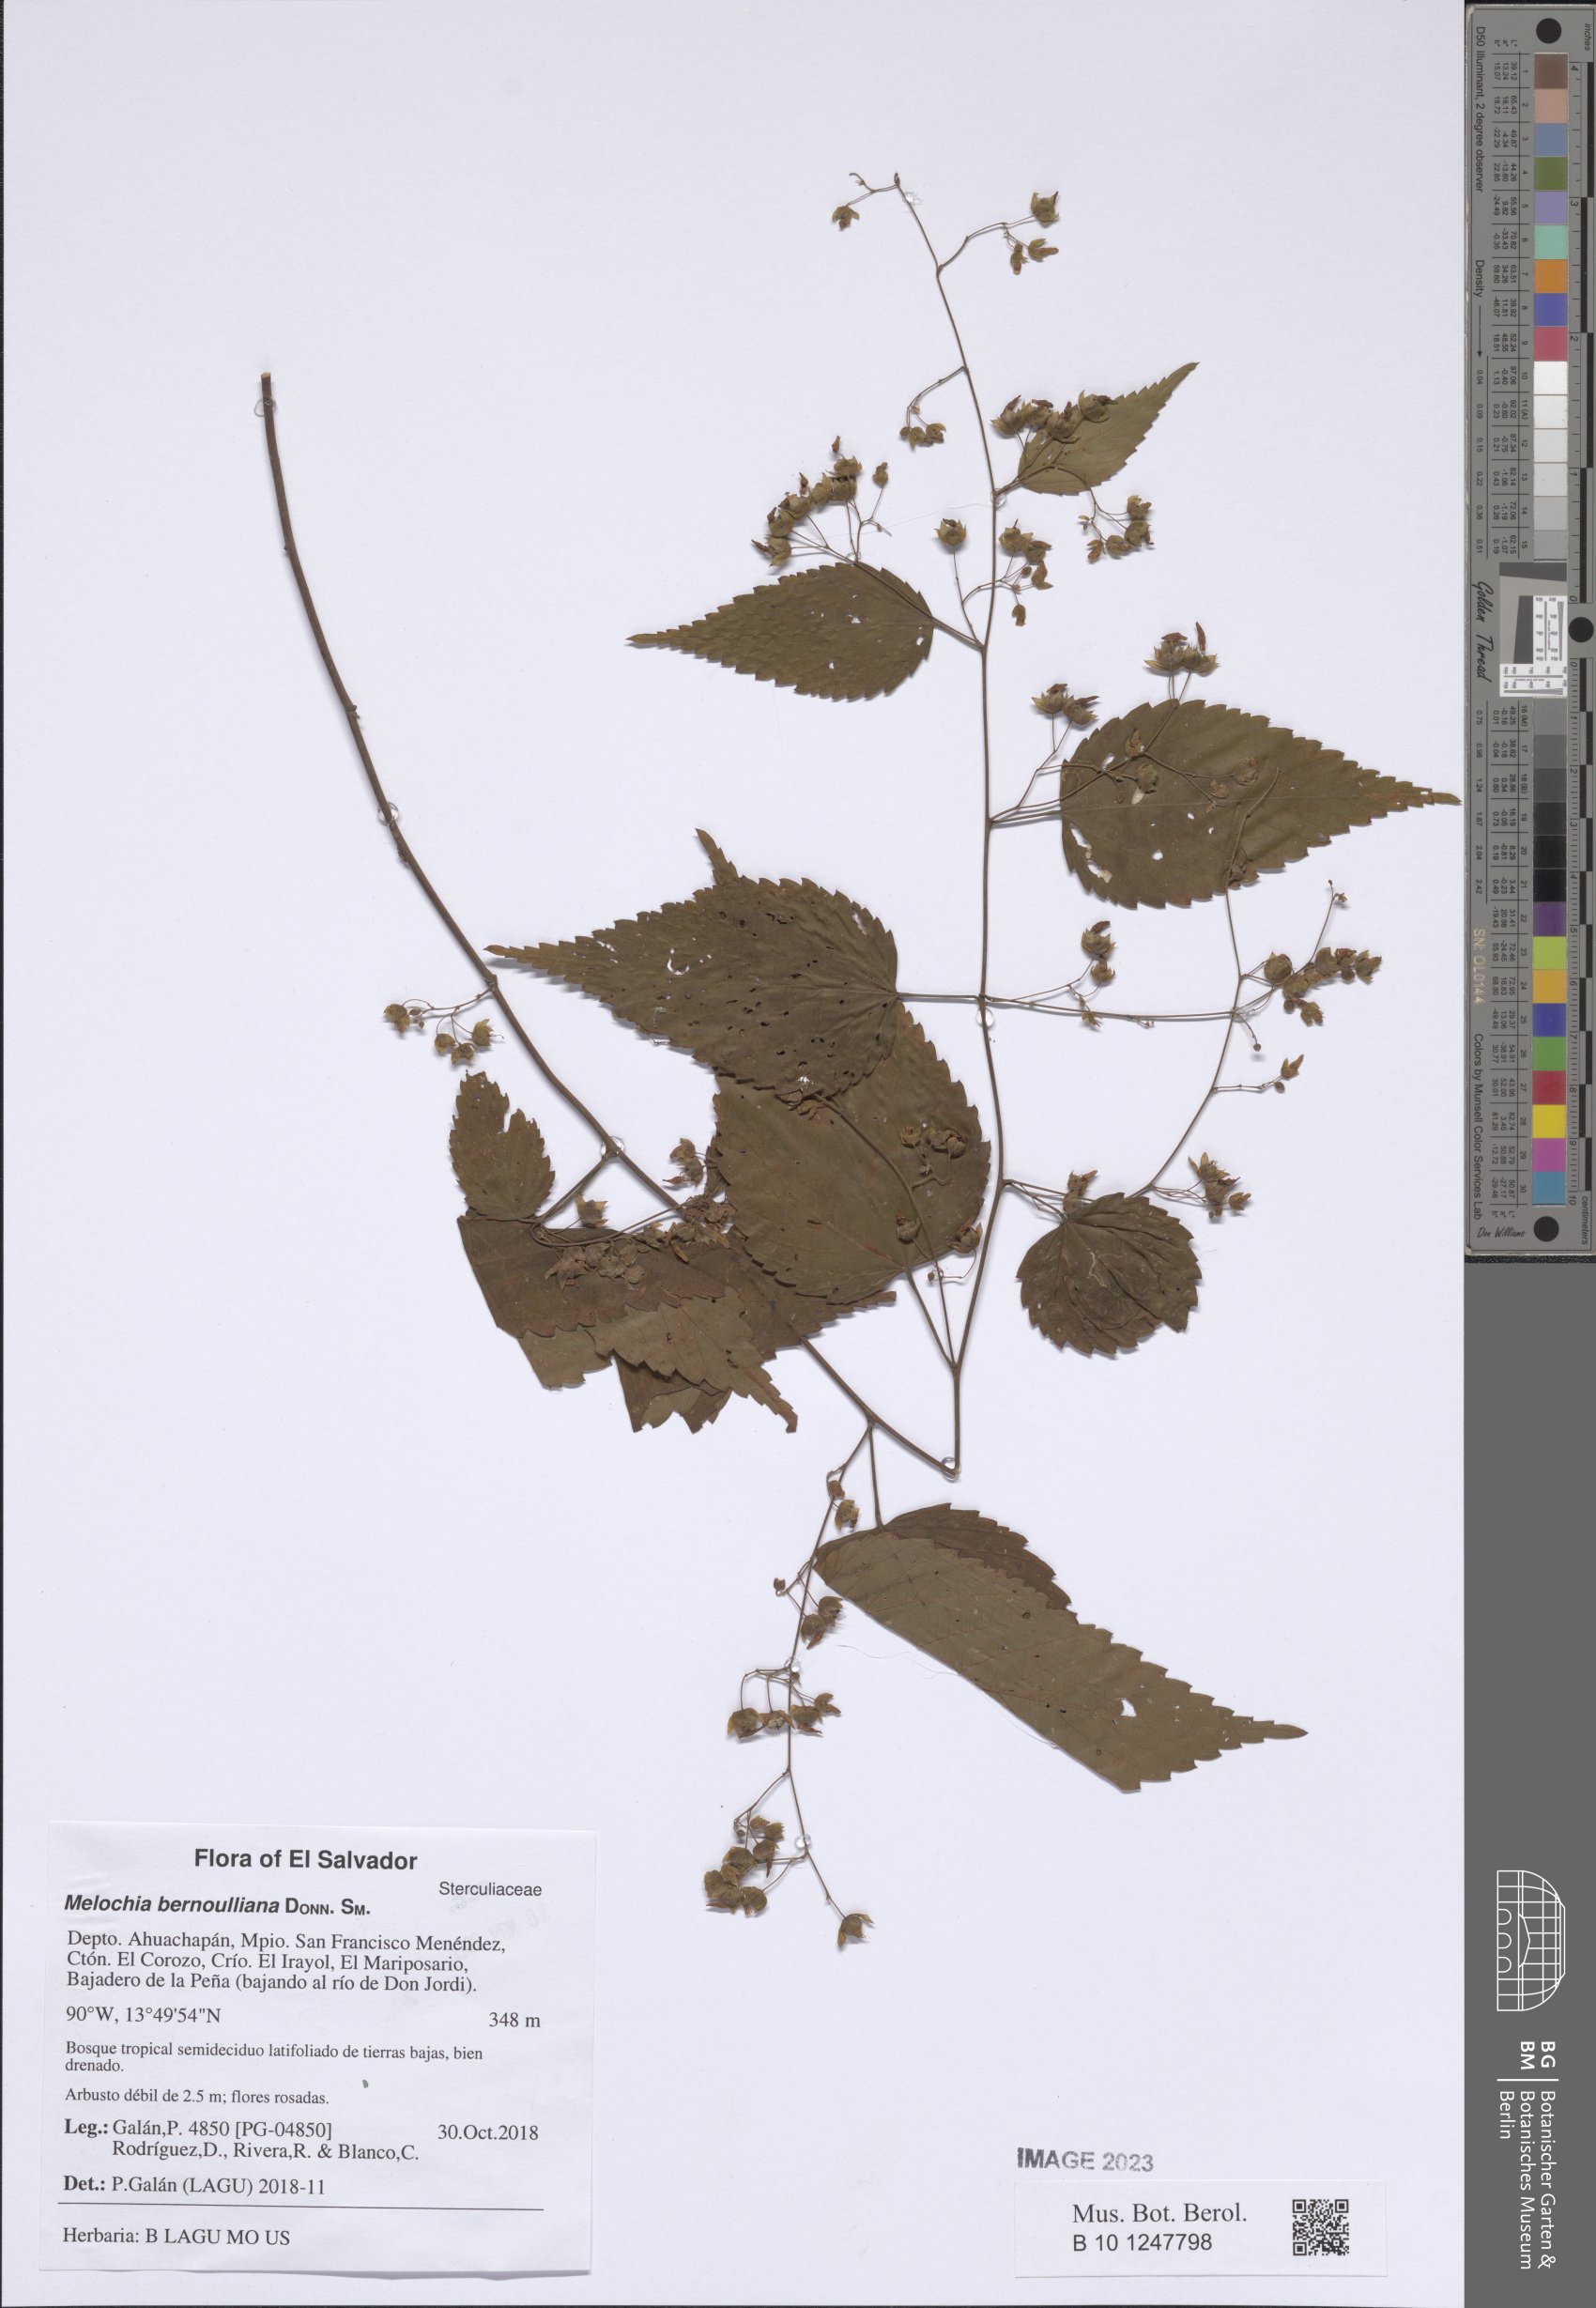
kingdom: Plantae
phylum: Tracheophyta
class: Magnoliopsida
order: Malvales
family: Malvaceae
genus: Melochia
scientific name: Melochia bernoulliana
